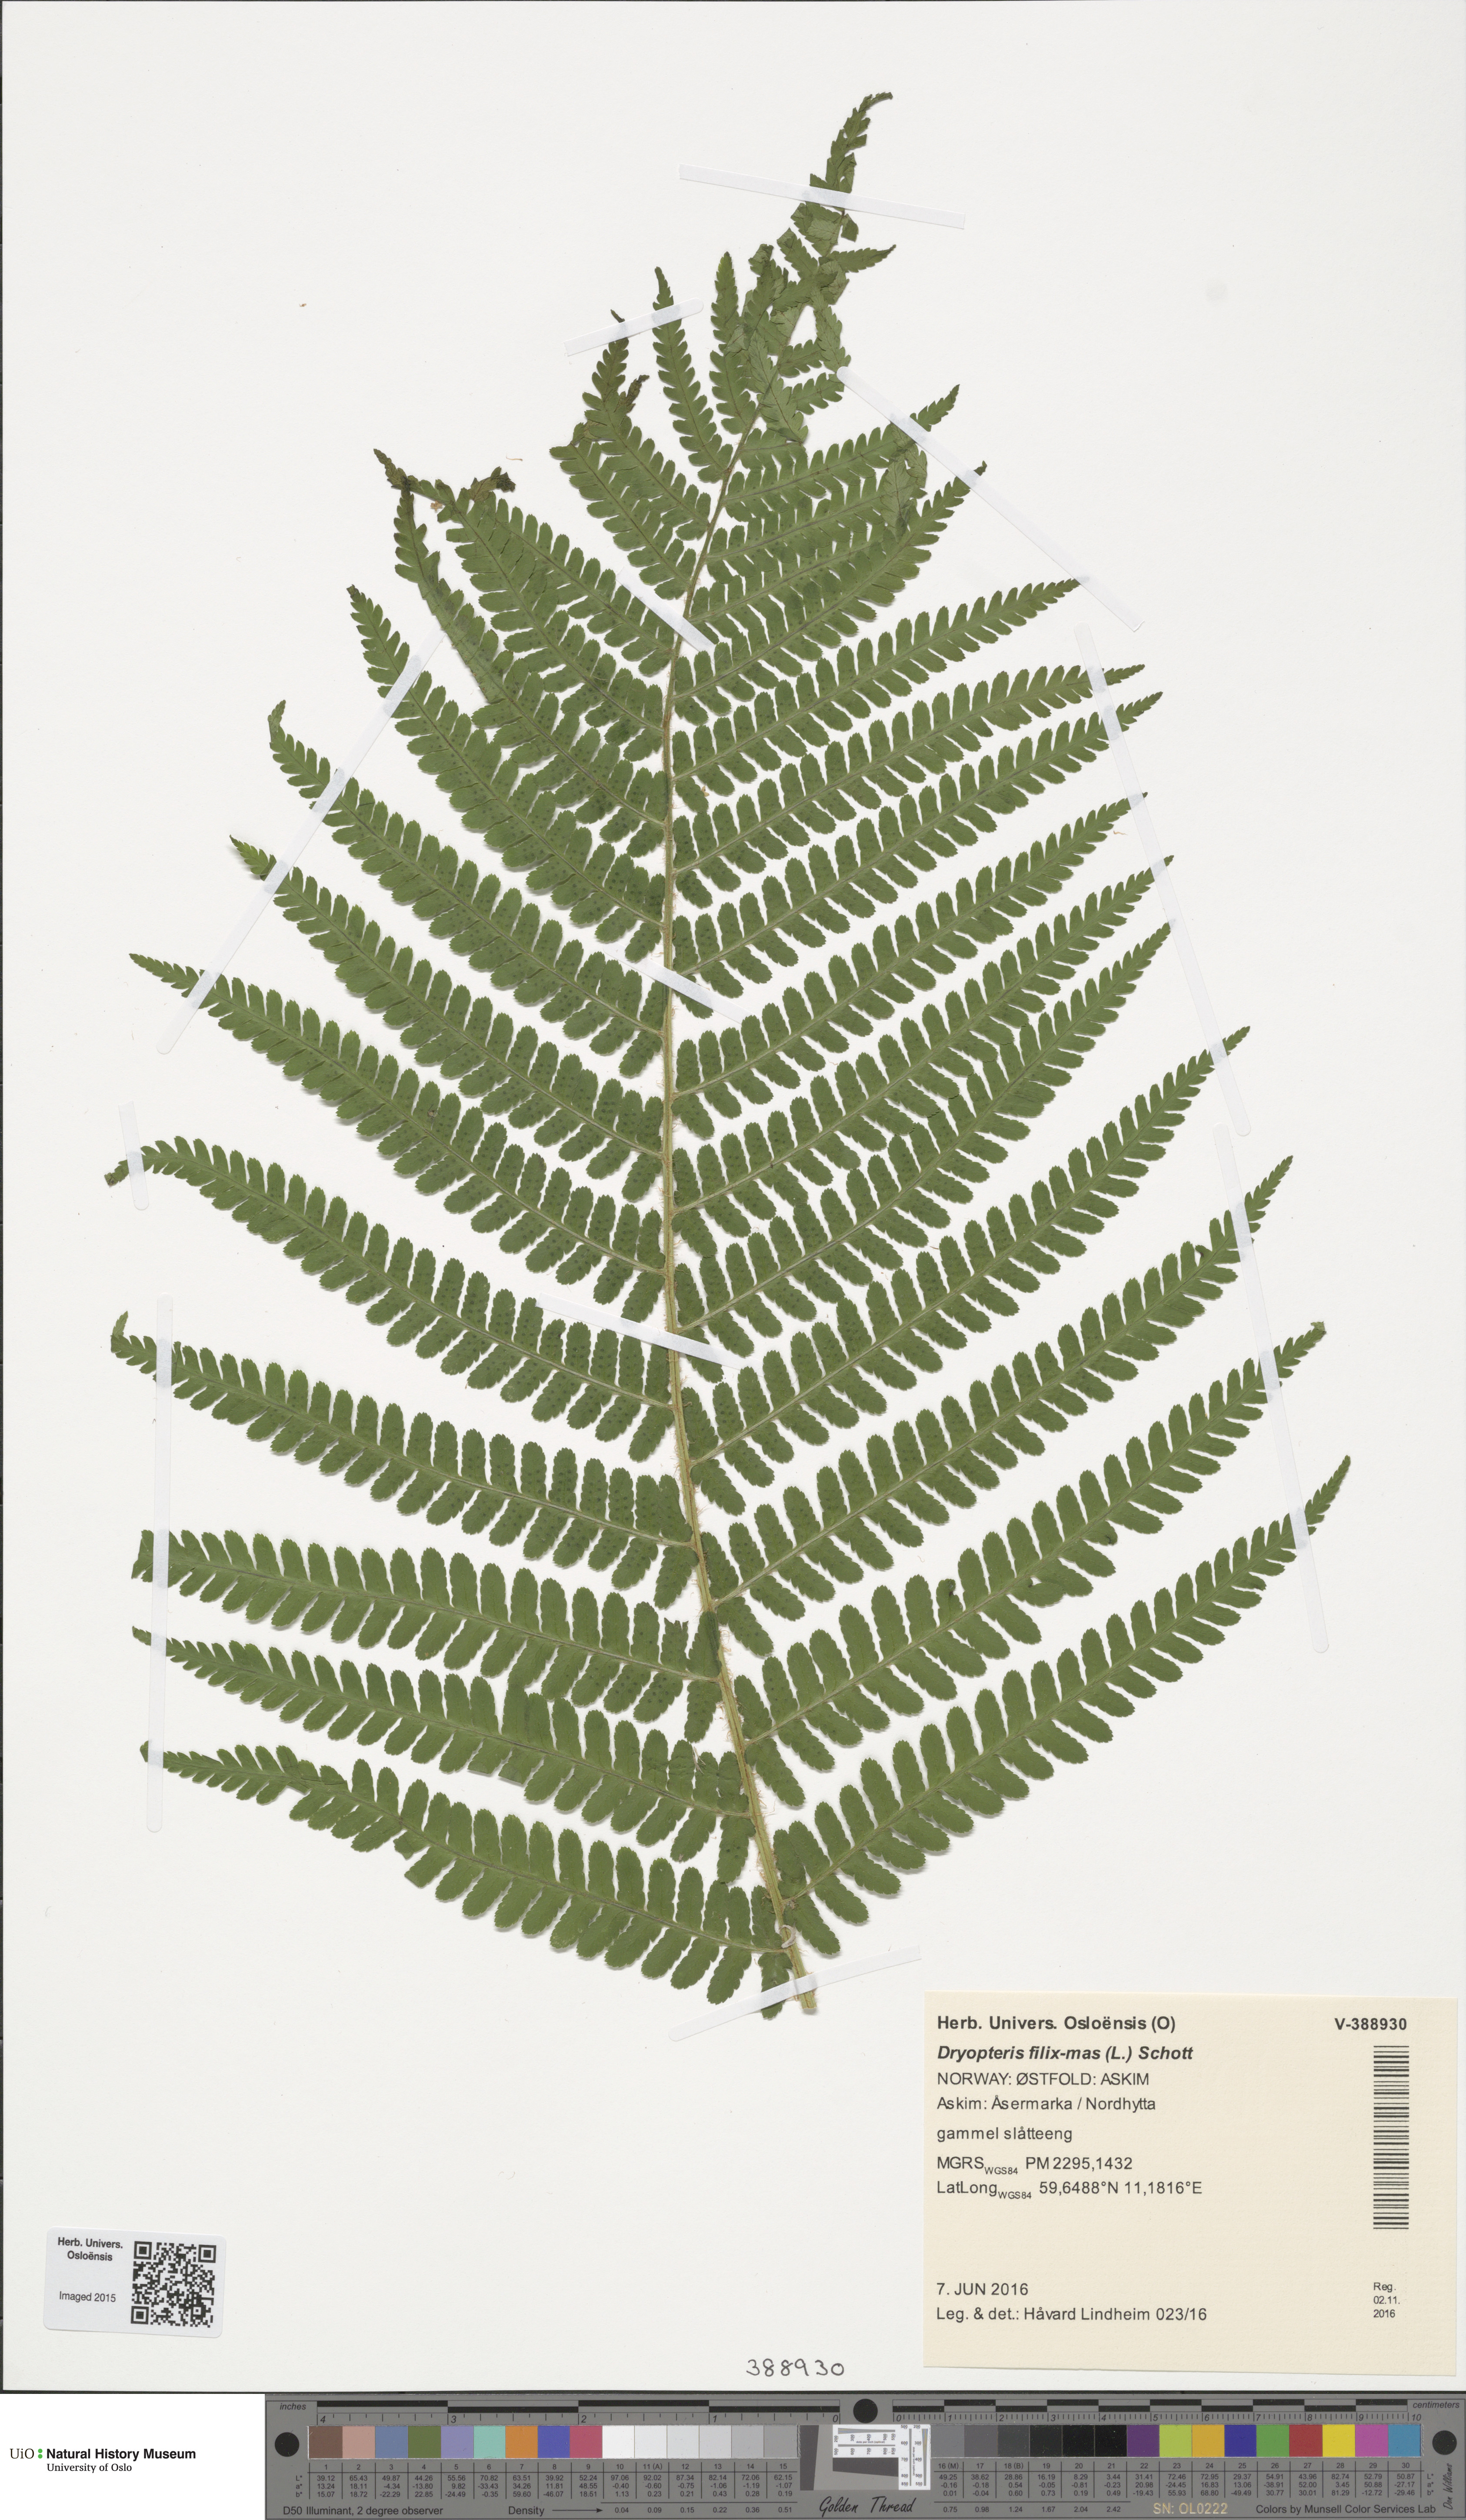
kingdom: Plantae
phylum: Tracheophyta
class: Polypodiopsida
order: Polypodiales
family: Dryopteridaceae
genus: Dryopteris
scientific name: Dryopteris filix-mas
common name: Male fern
